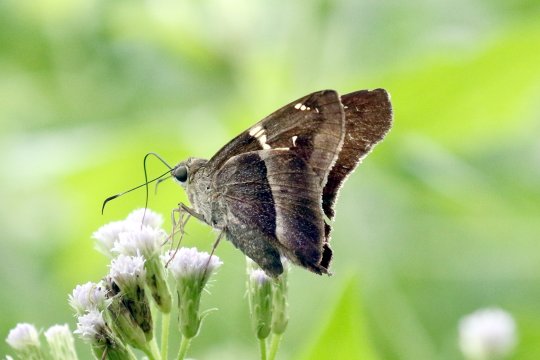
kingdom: Animalia
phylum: Arthropoda
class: Insecta
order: Lepidoptera
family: Hesperiidae
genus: Aguna
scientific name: Aguna metophis
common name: Tailed Aguna
